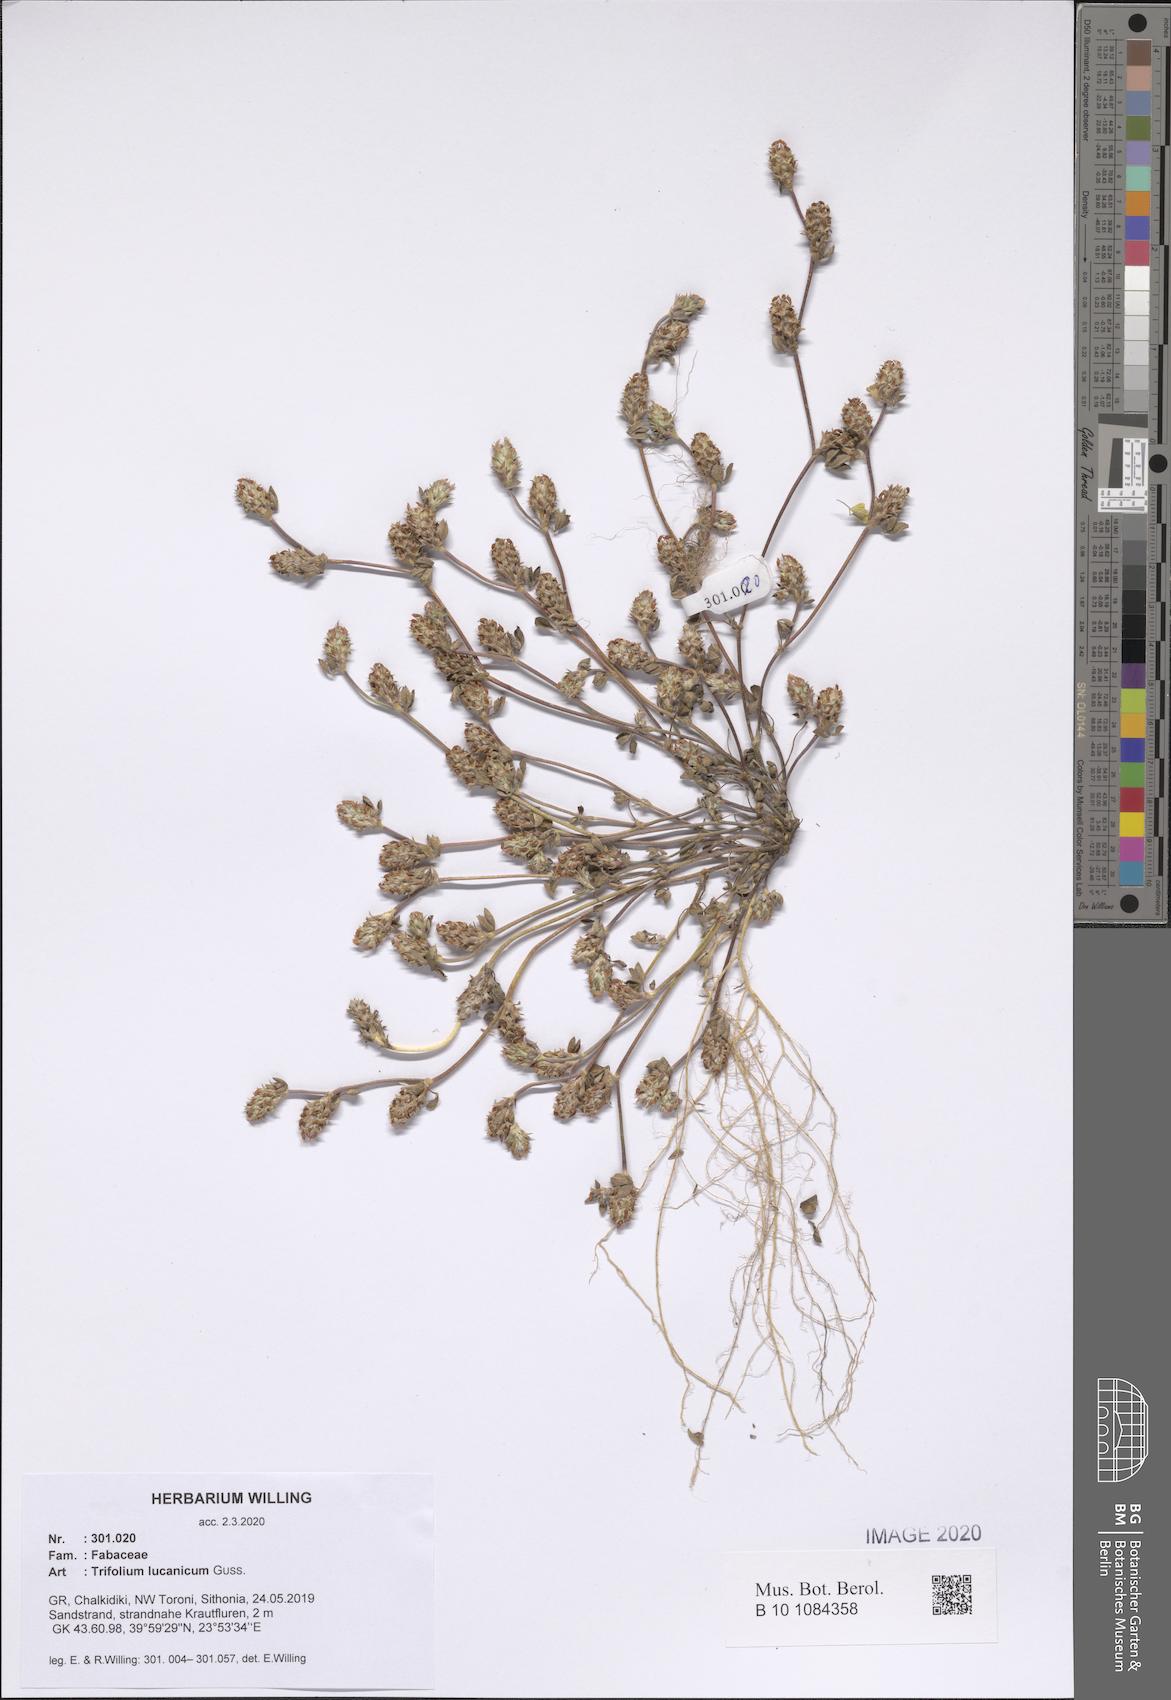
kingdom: Plantae
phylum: Tracheophyta
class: Magnoliopsida
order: Fabales
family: Fabaceae
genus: Trifolium
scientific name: Trifolium lucanicum
